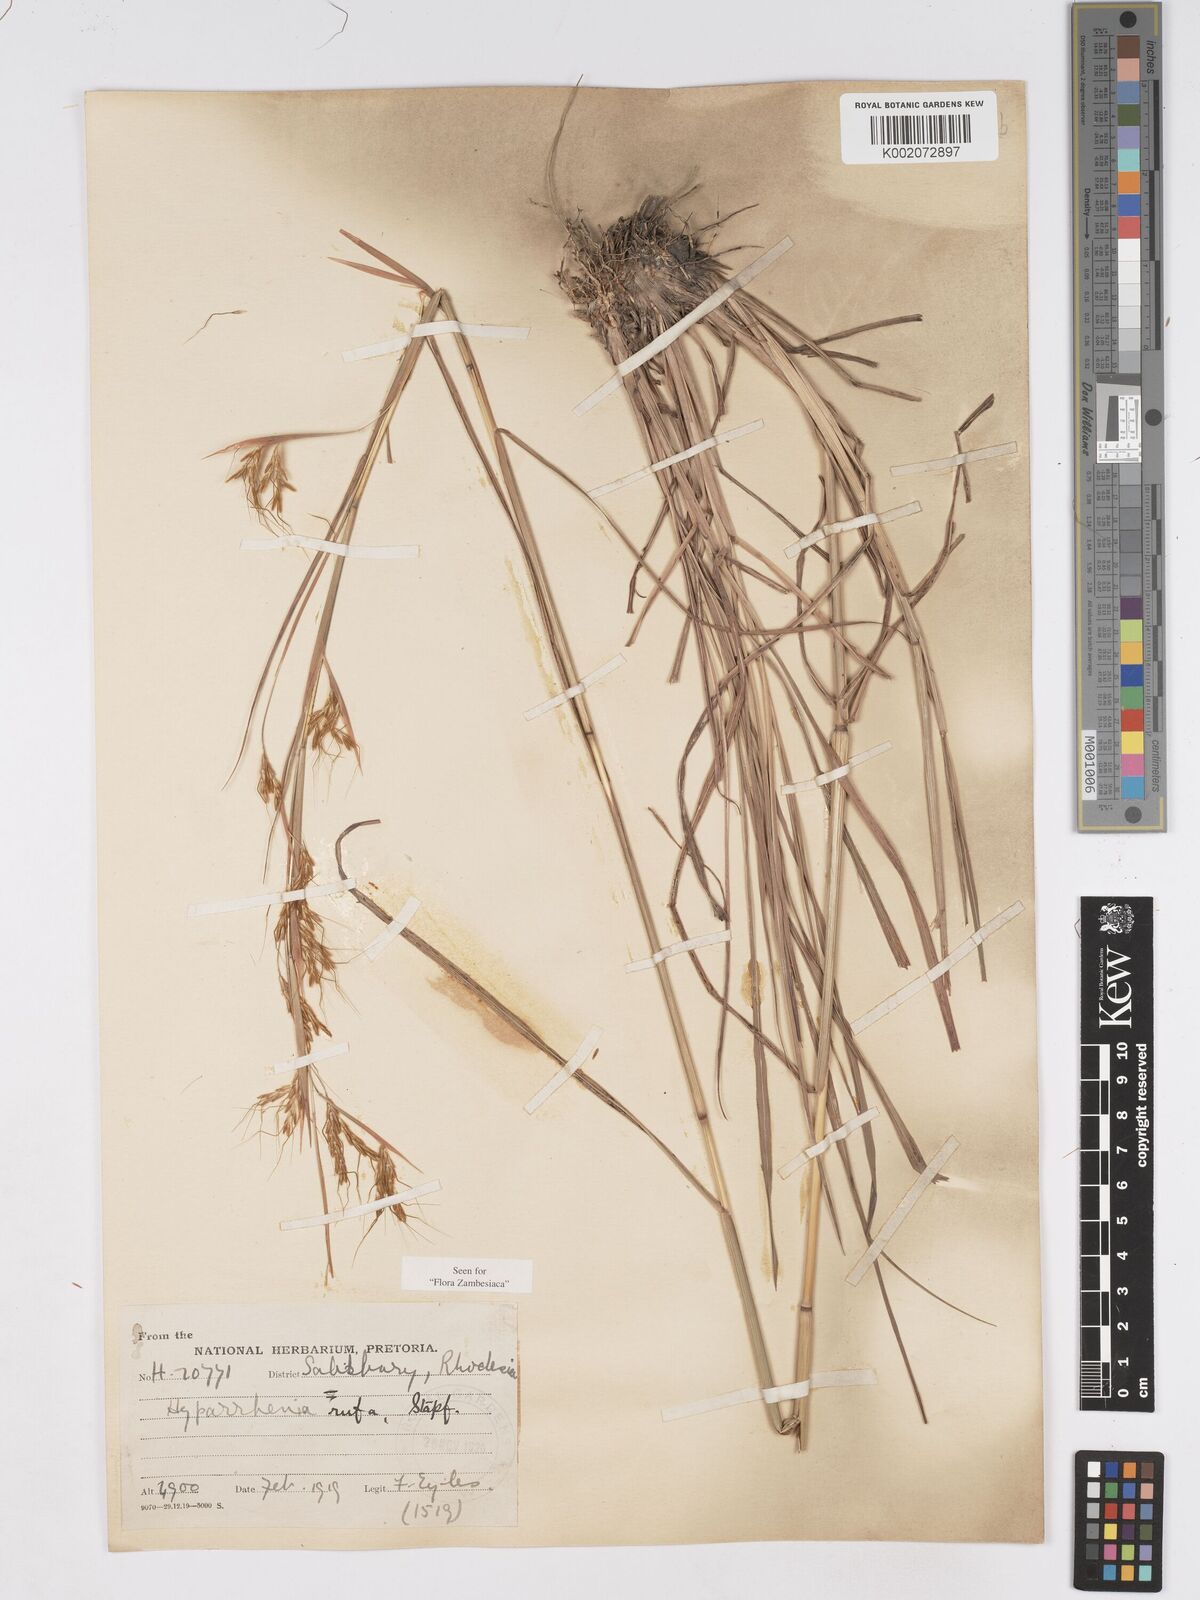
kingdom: Plantae
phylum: Tracheophyta
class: Liliopsida
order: Poales
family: Poaceae
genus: Hyparrhenia
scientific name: Hyparrhenia rufa
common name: Jaraguagrass
